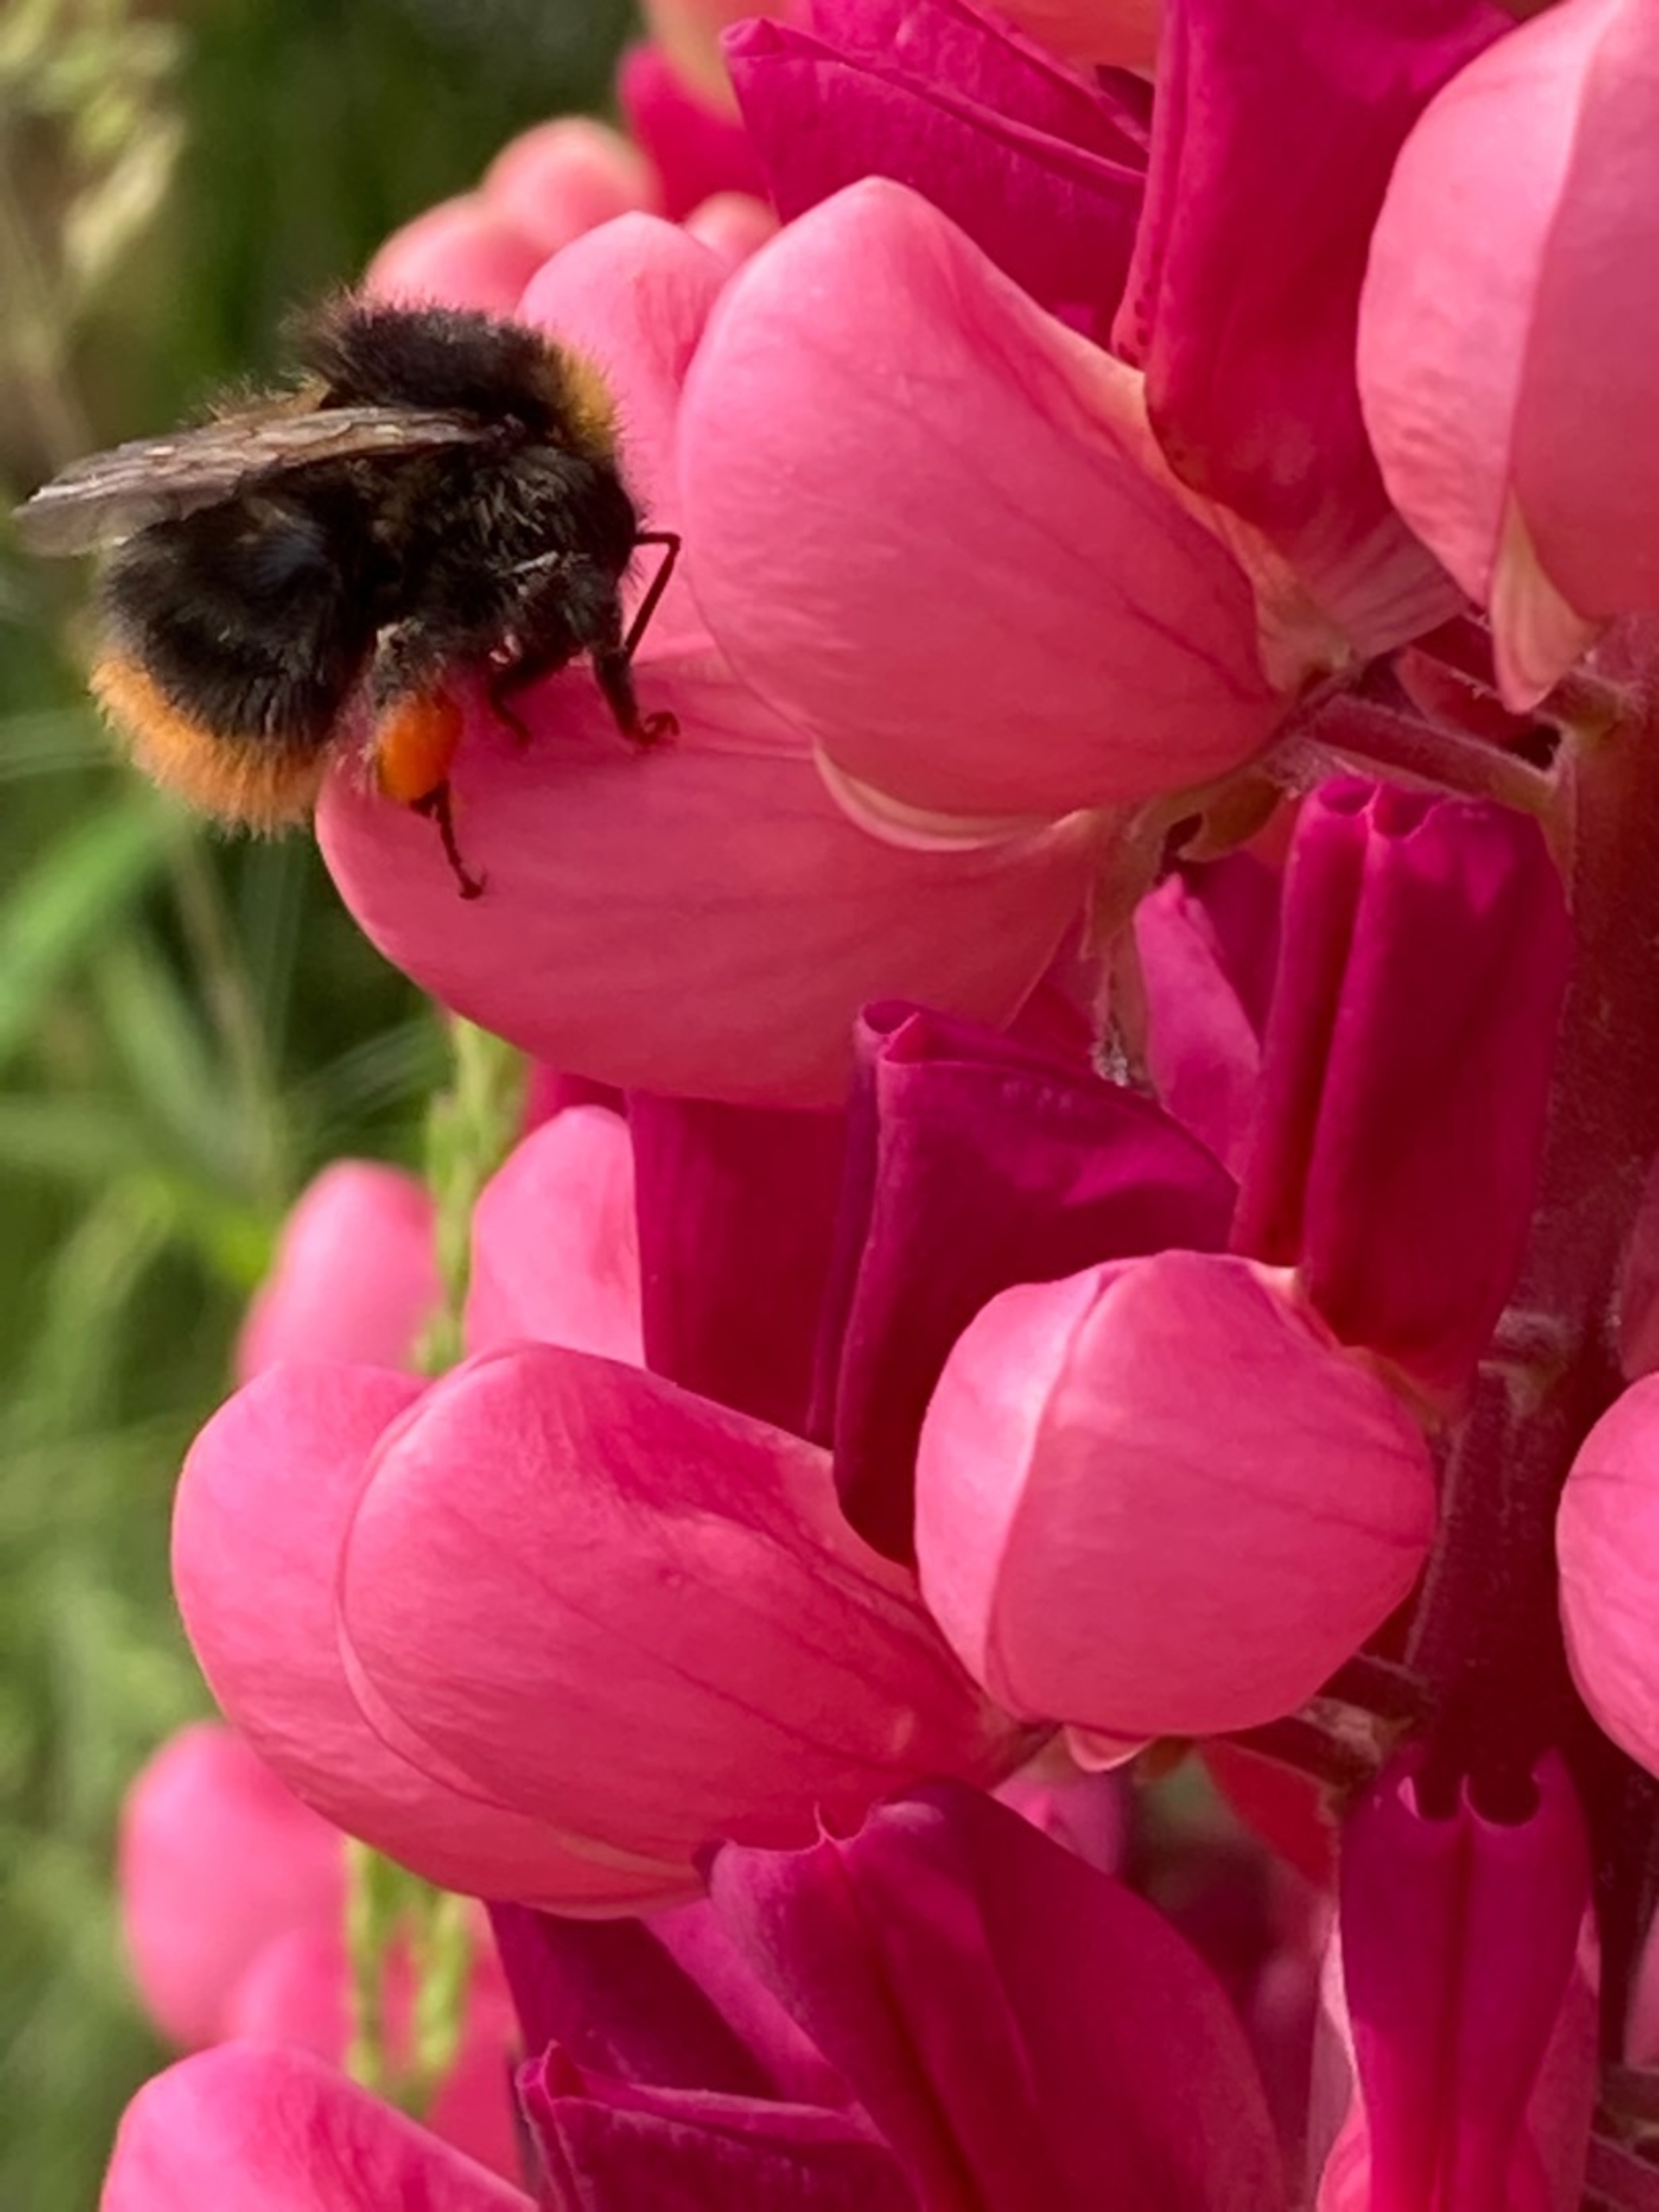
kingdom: Animalia
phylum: Arthropoda
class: Insecta
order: Hymenoptera
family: Apidae
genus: Bombus
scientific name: Bombus pratorum
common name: Lille skovhumle
